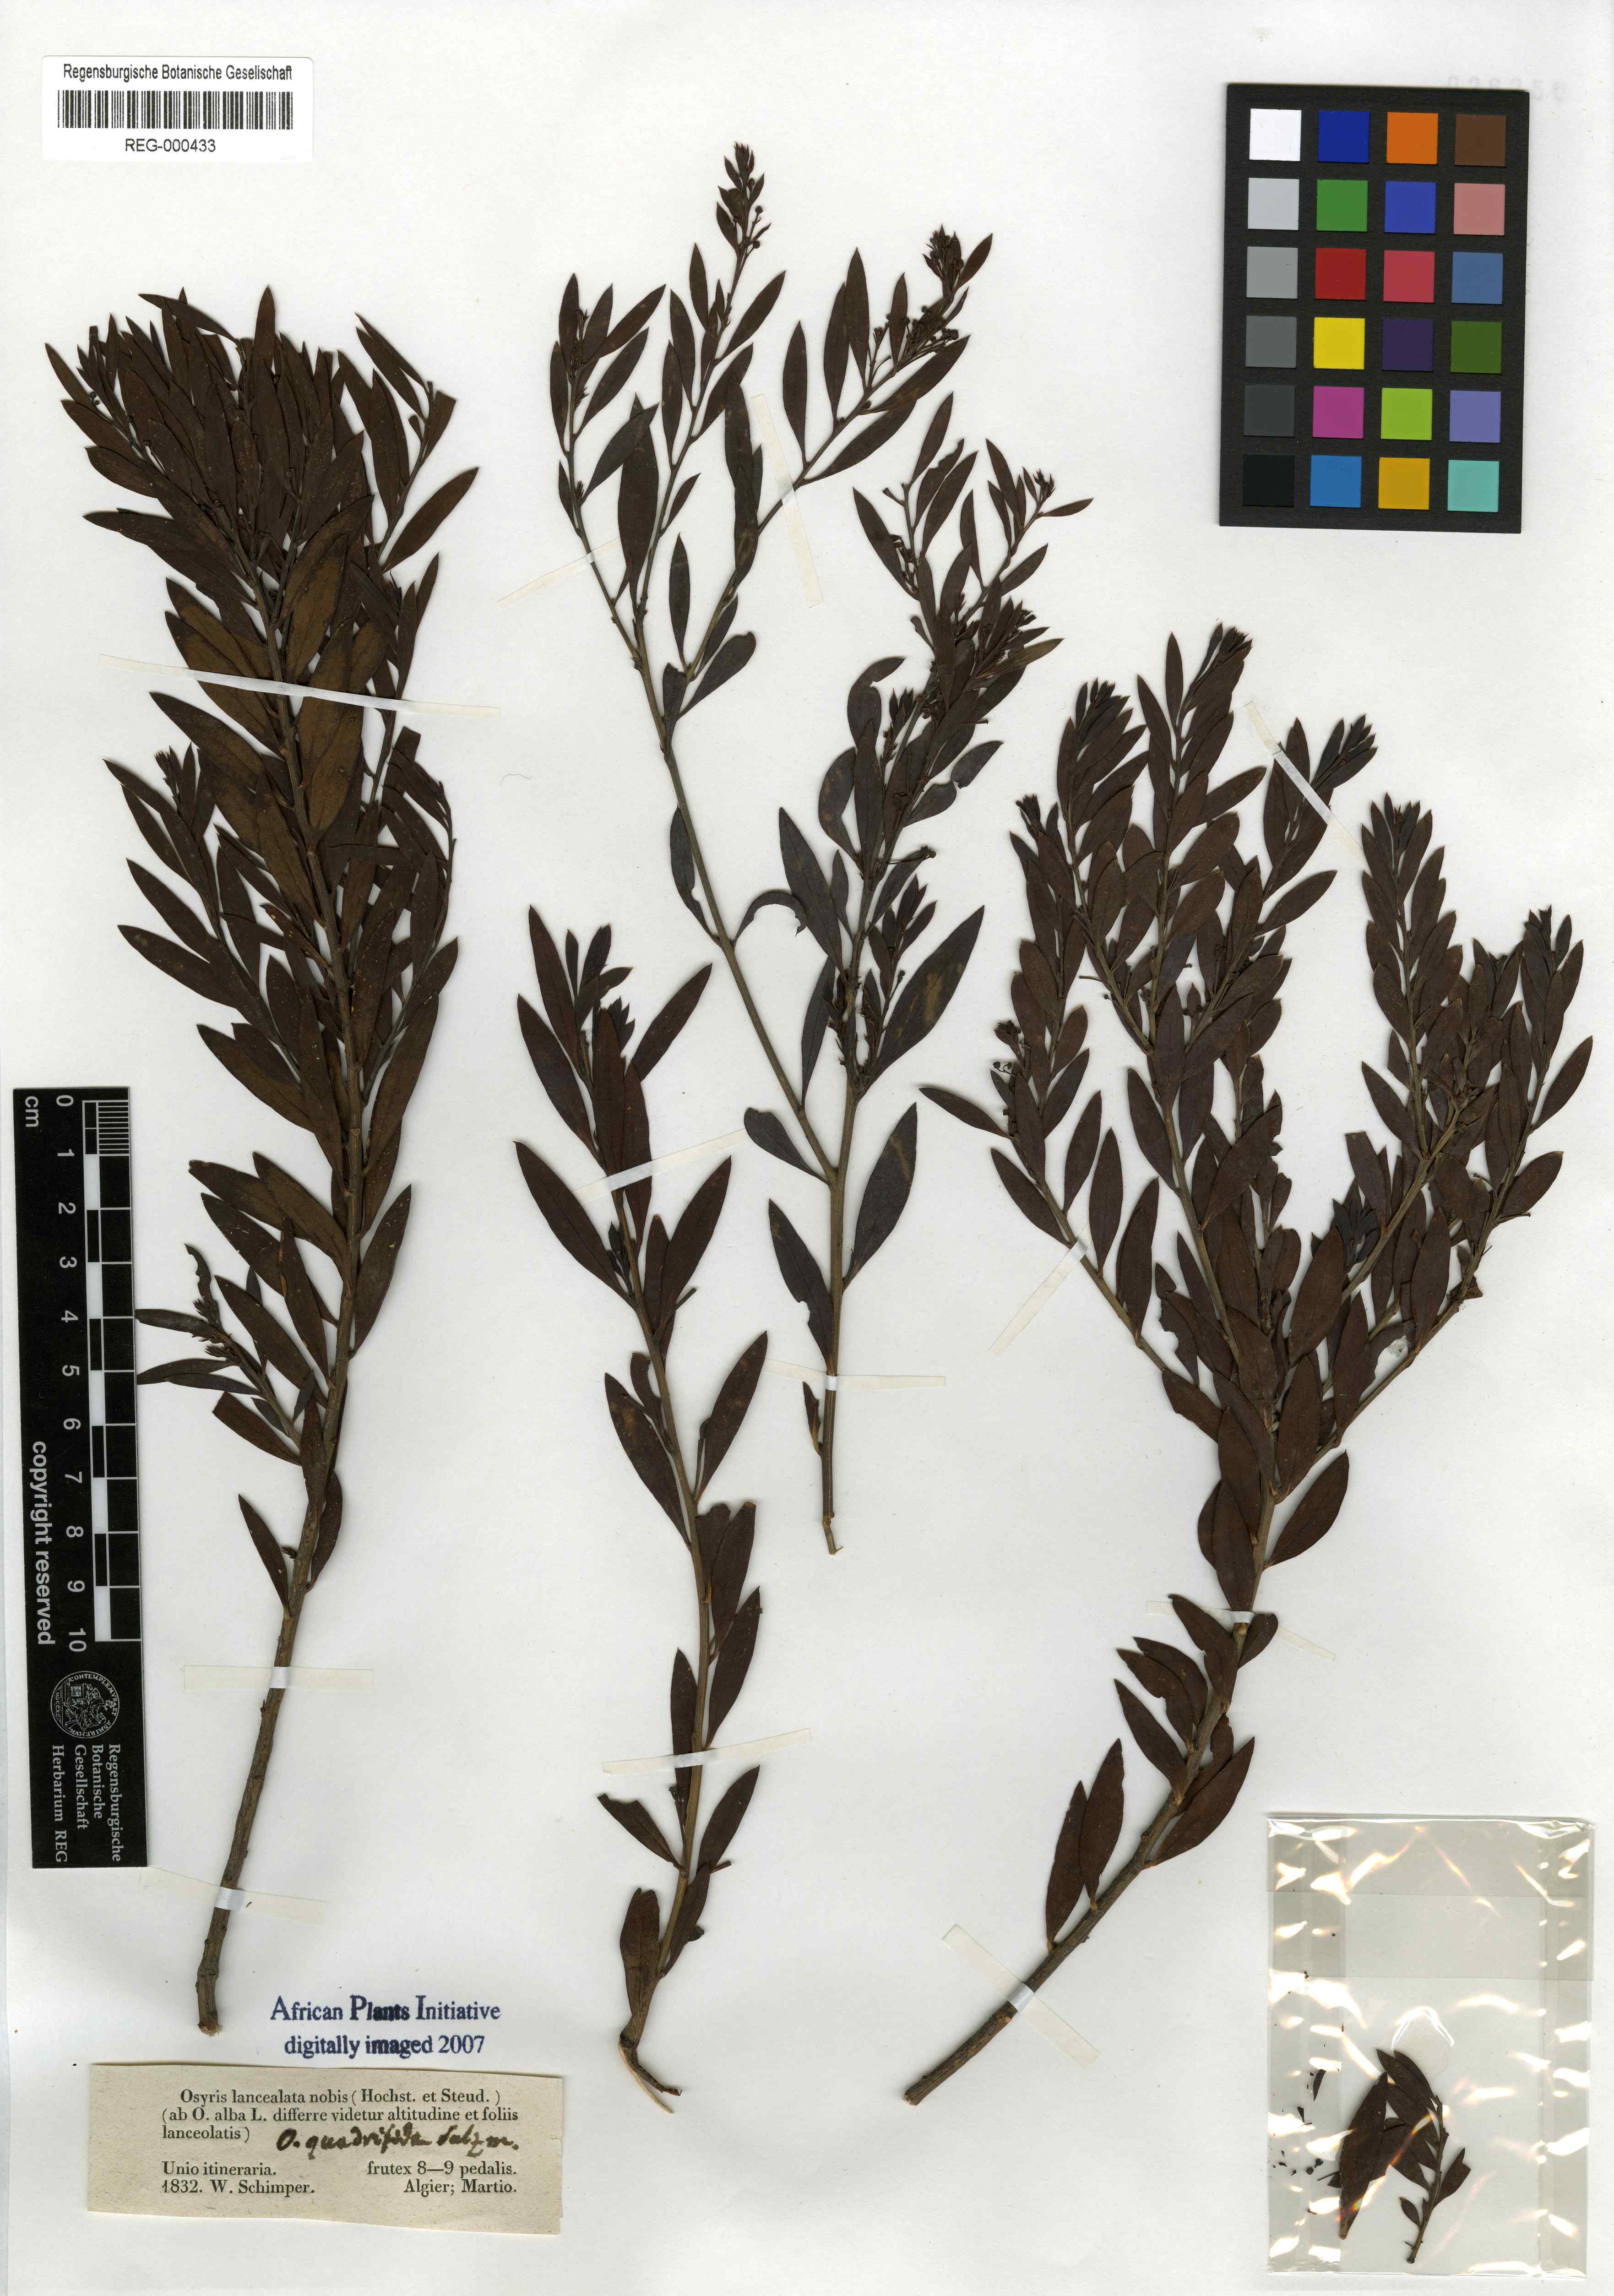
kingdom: Plantae
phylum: Tracheophyta
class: Magnoliopsida
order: Santalales
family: Santalaceae
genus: Osyris
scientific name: Osyris lanceolata
